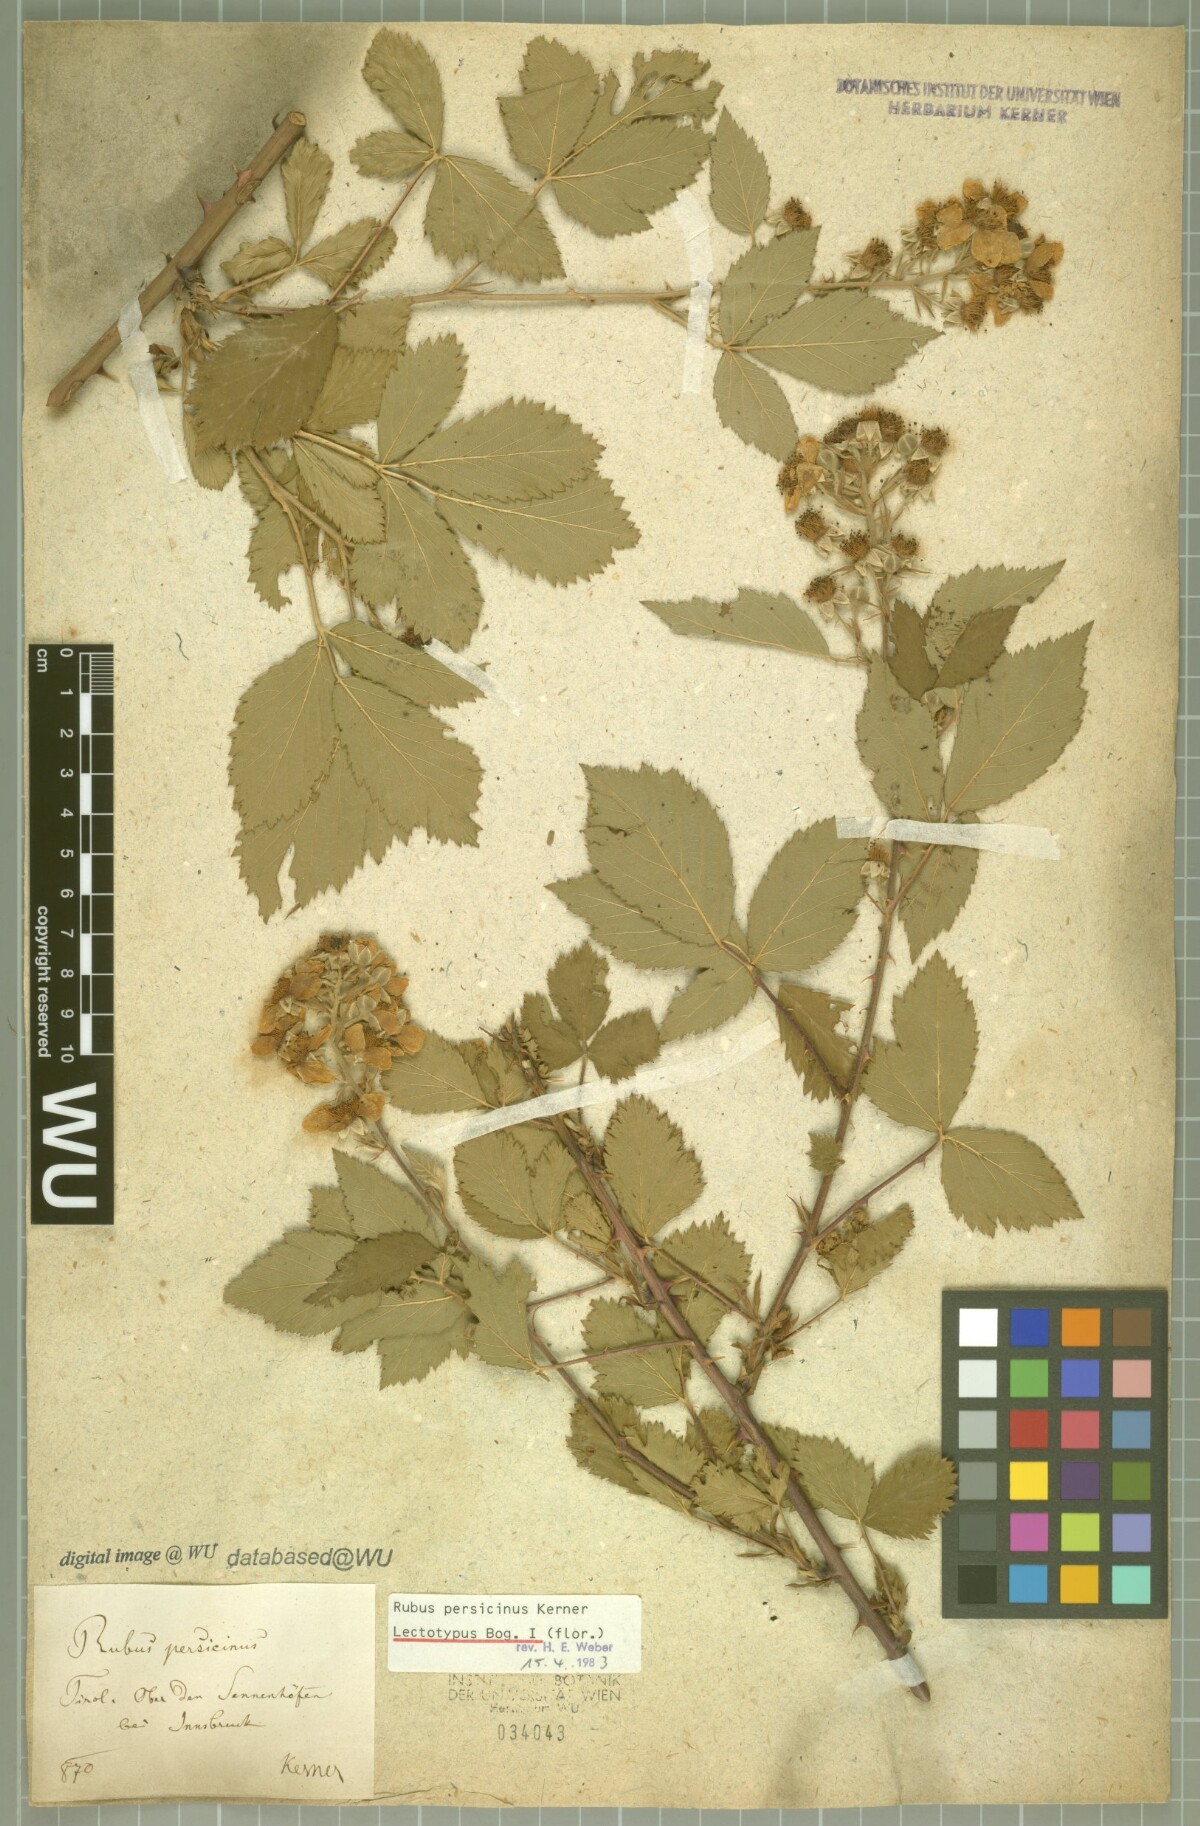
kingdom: Plantae
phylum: Tracheophyta
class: Magnoliopsida
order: Rosales
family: Rosaceae
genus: Rubus
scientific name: Rubus persicinus
